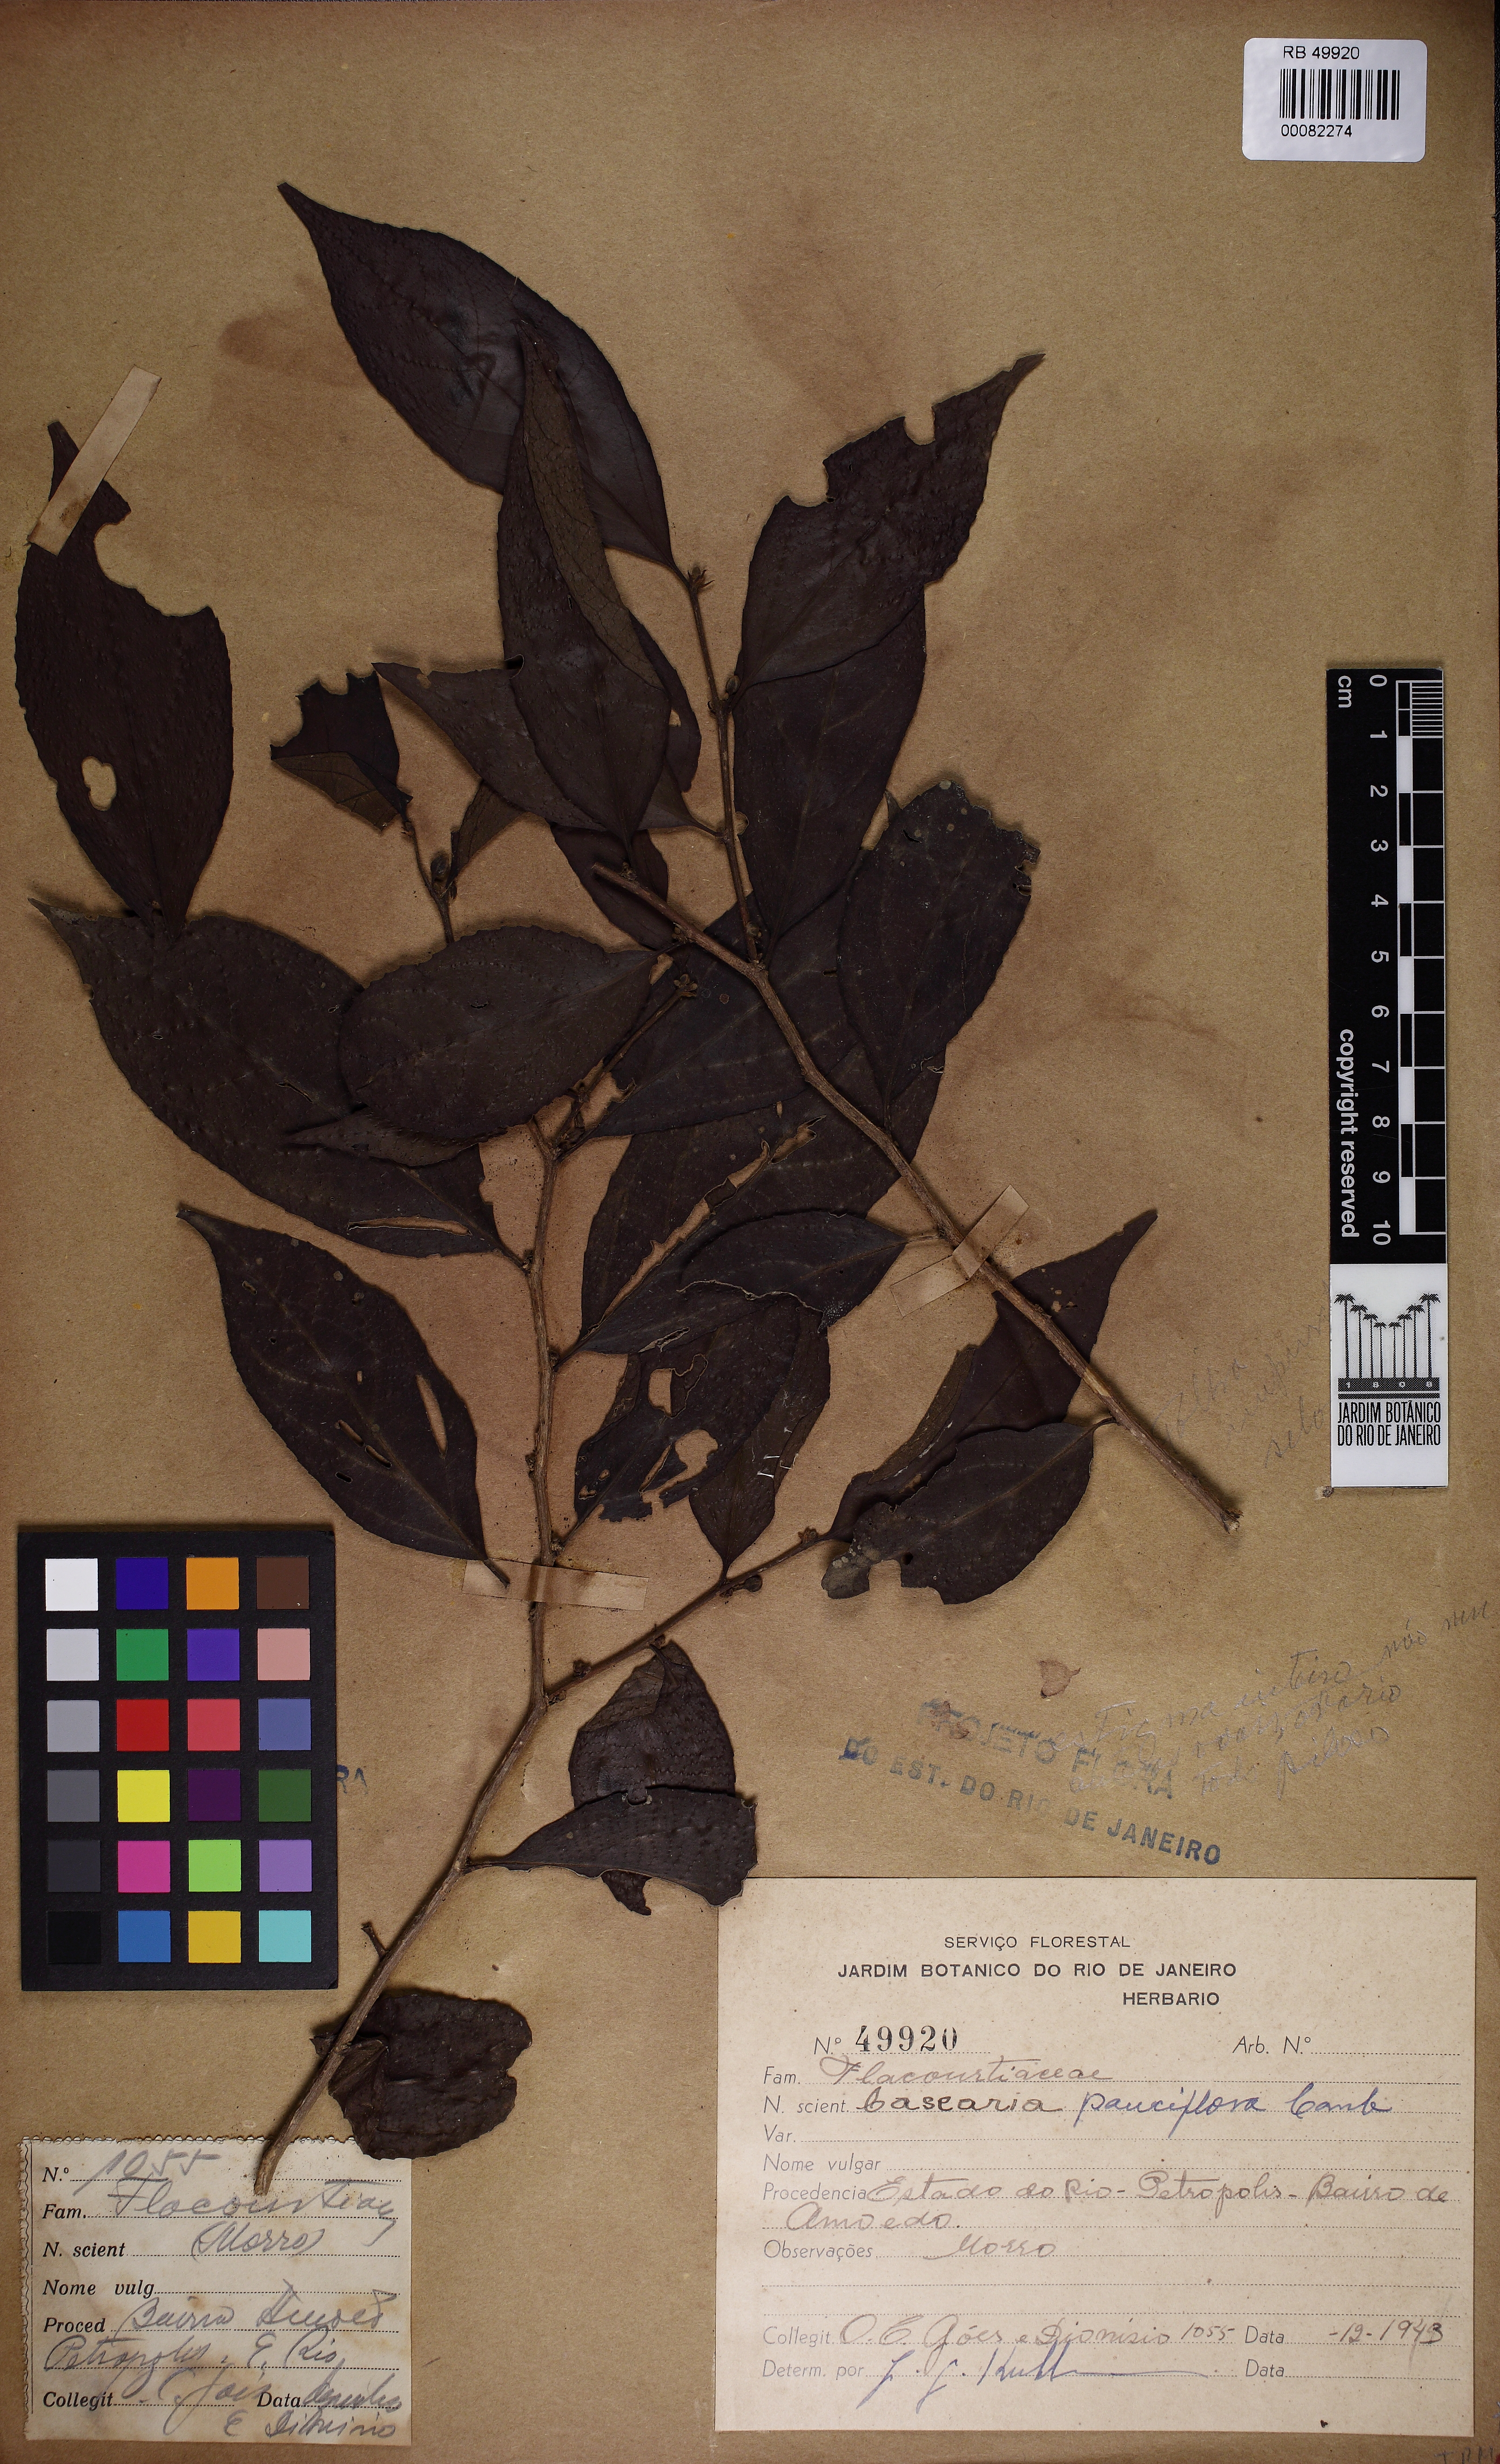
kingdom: Plantae
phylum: Tracheophyta
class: Magnoliopsida
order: Malpighiales
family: Salicaceae
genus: Casearia
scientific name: Casearia pauciflora
